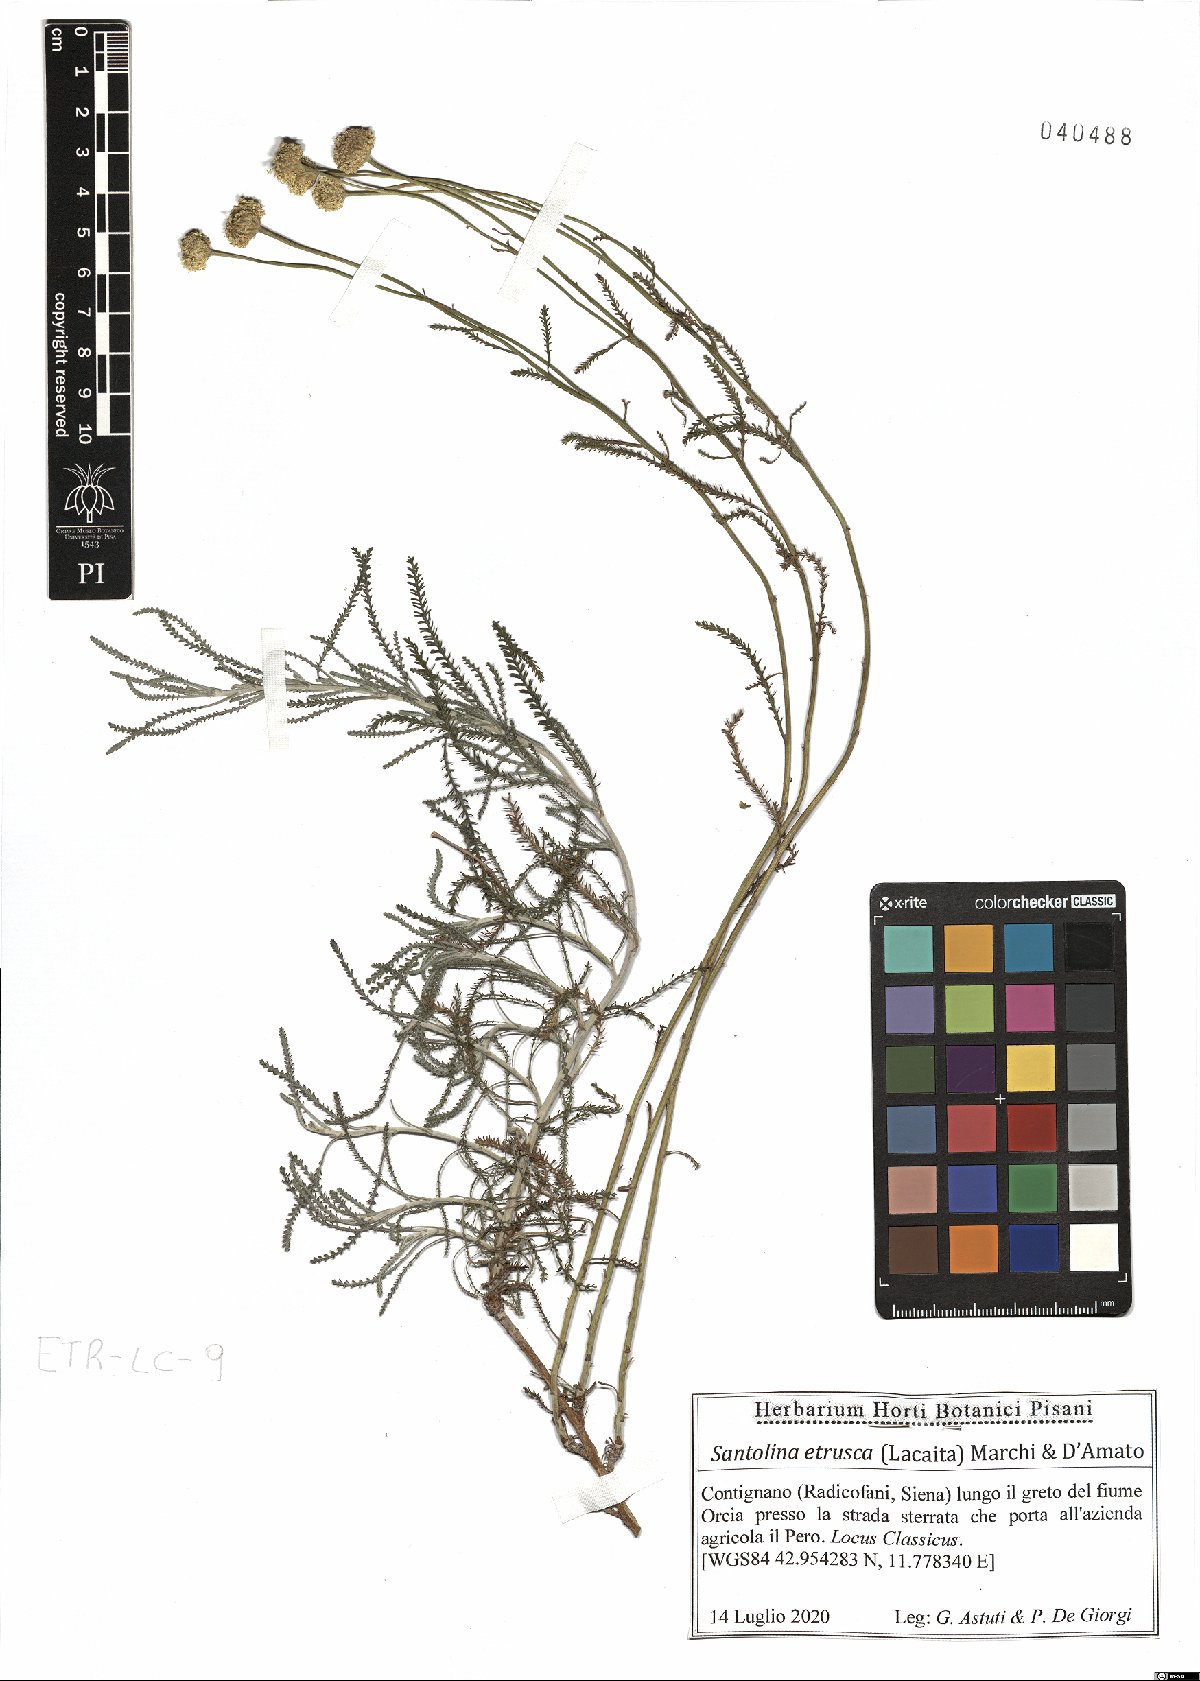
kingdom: Plantae
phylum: Tracheophyta
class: Magnoliopsida
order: Asterales
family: Asteraceae
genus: Santolina
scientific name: Santolina etrusca
